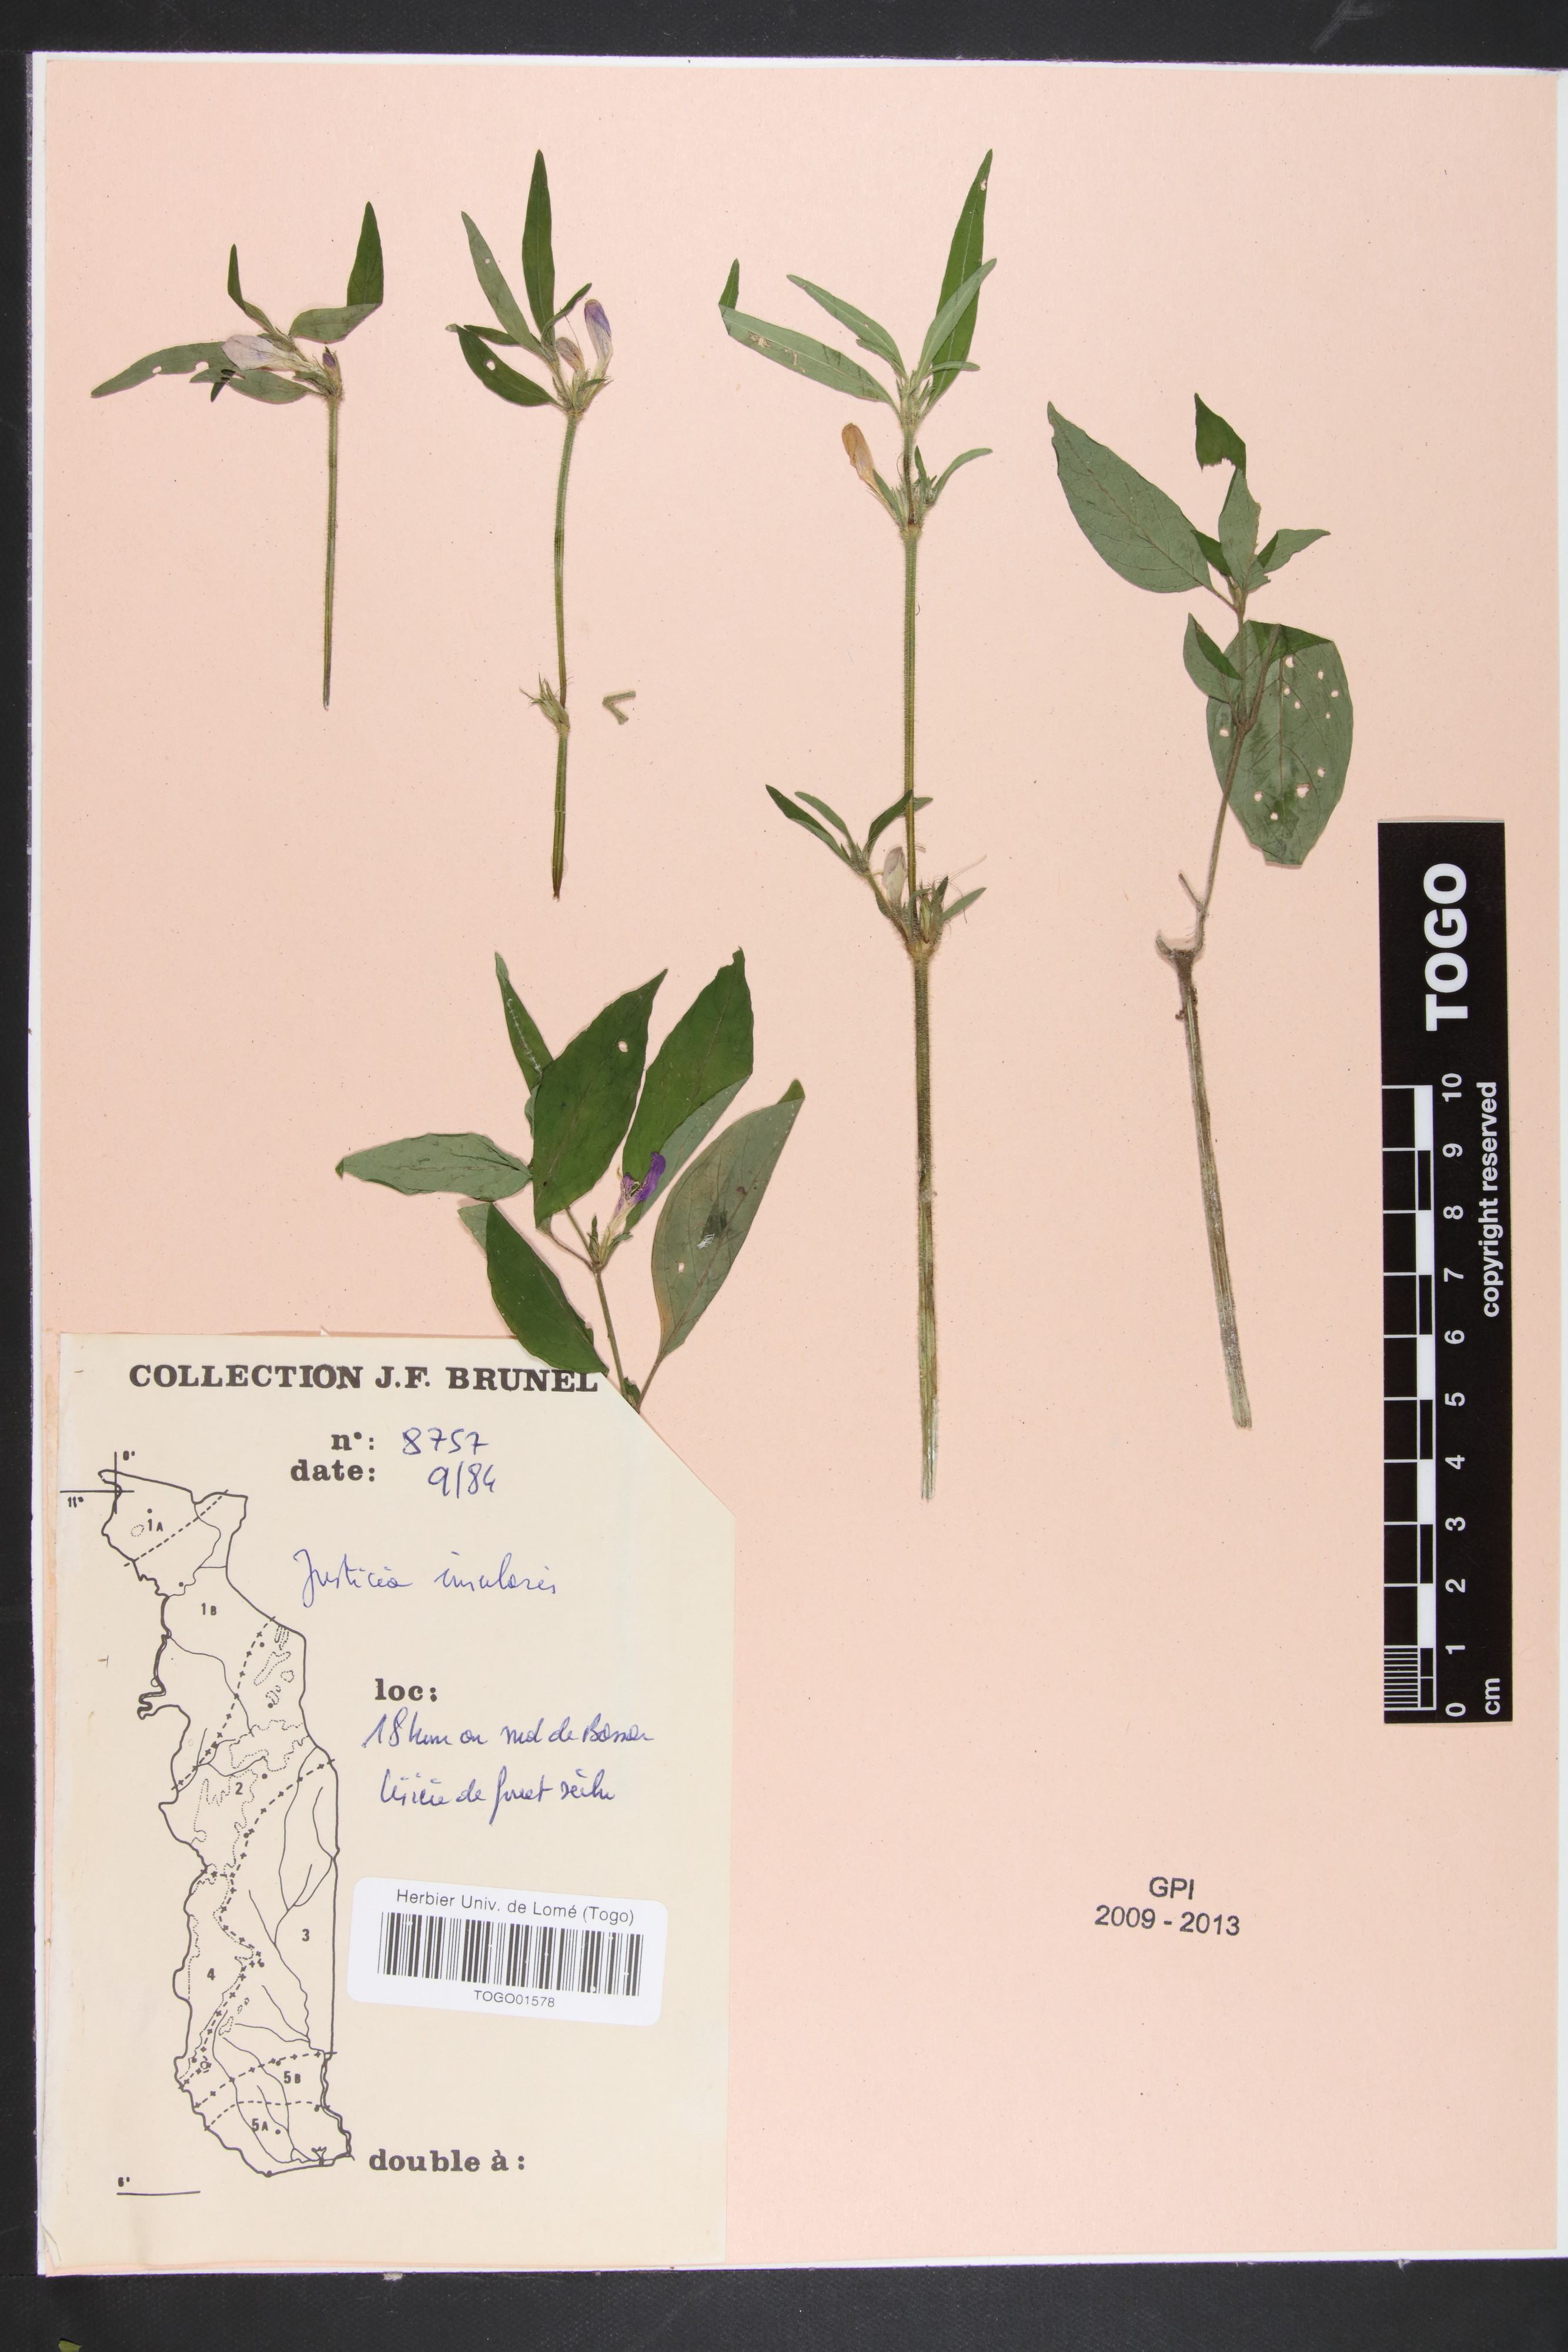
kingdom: Plantae
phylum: Tracheophyta
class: Magnoliopsida
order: Lamiales
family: Acanthaceae
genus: Justicia
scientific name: Justicia insularis
